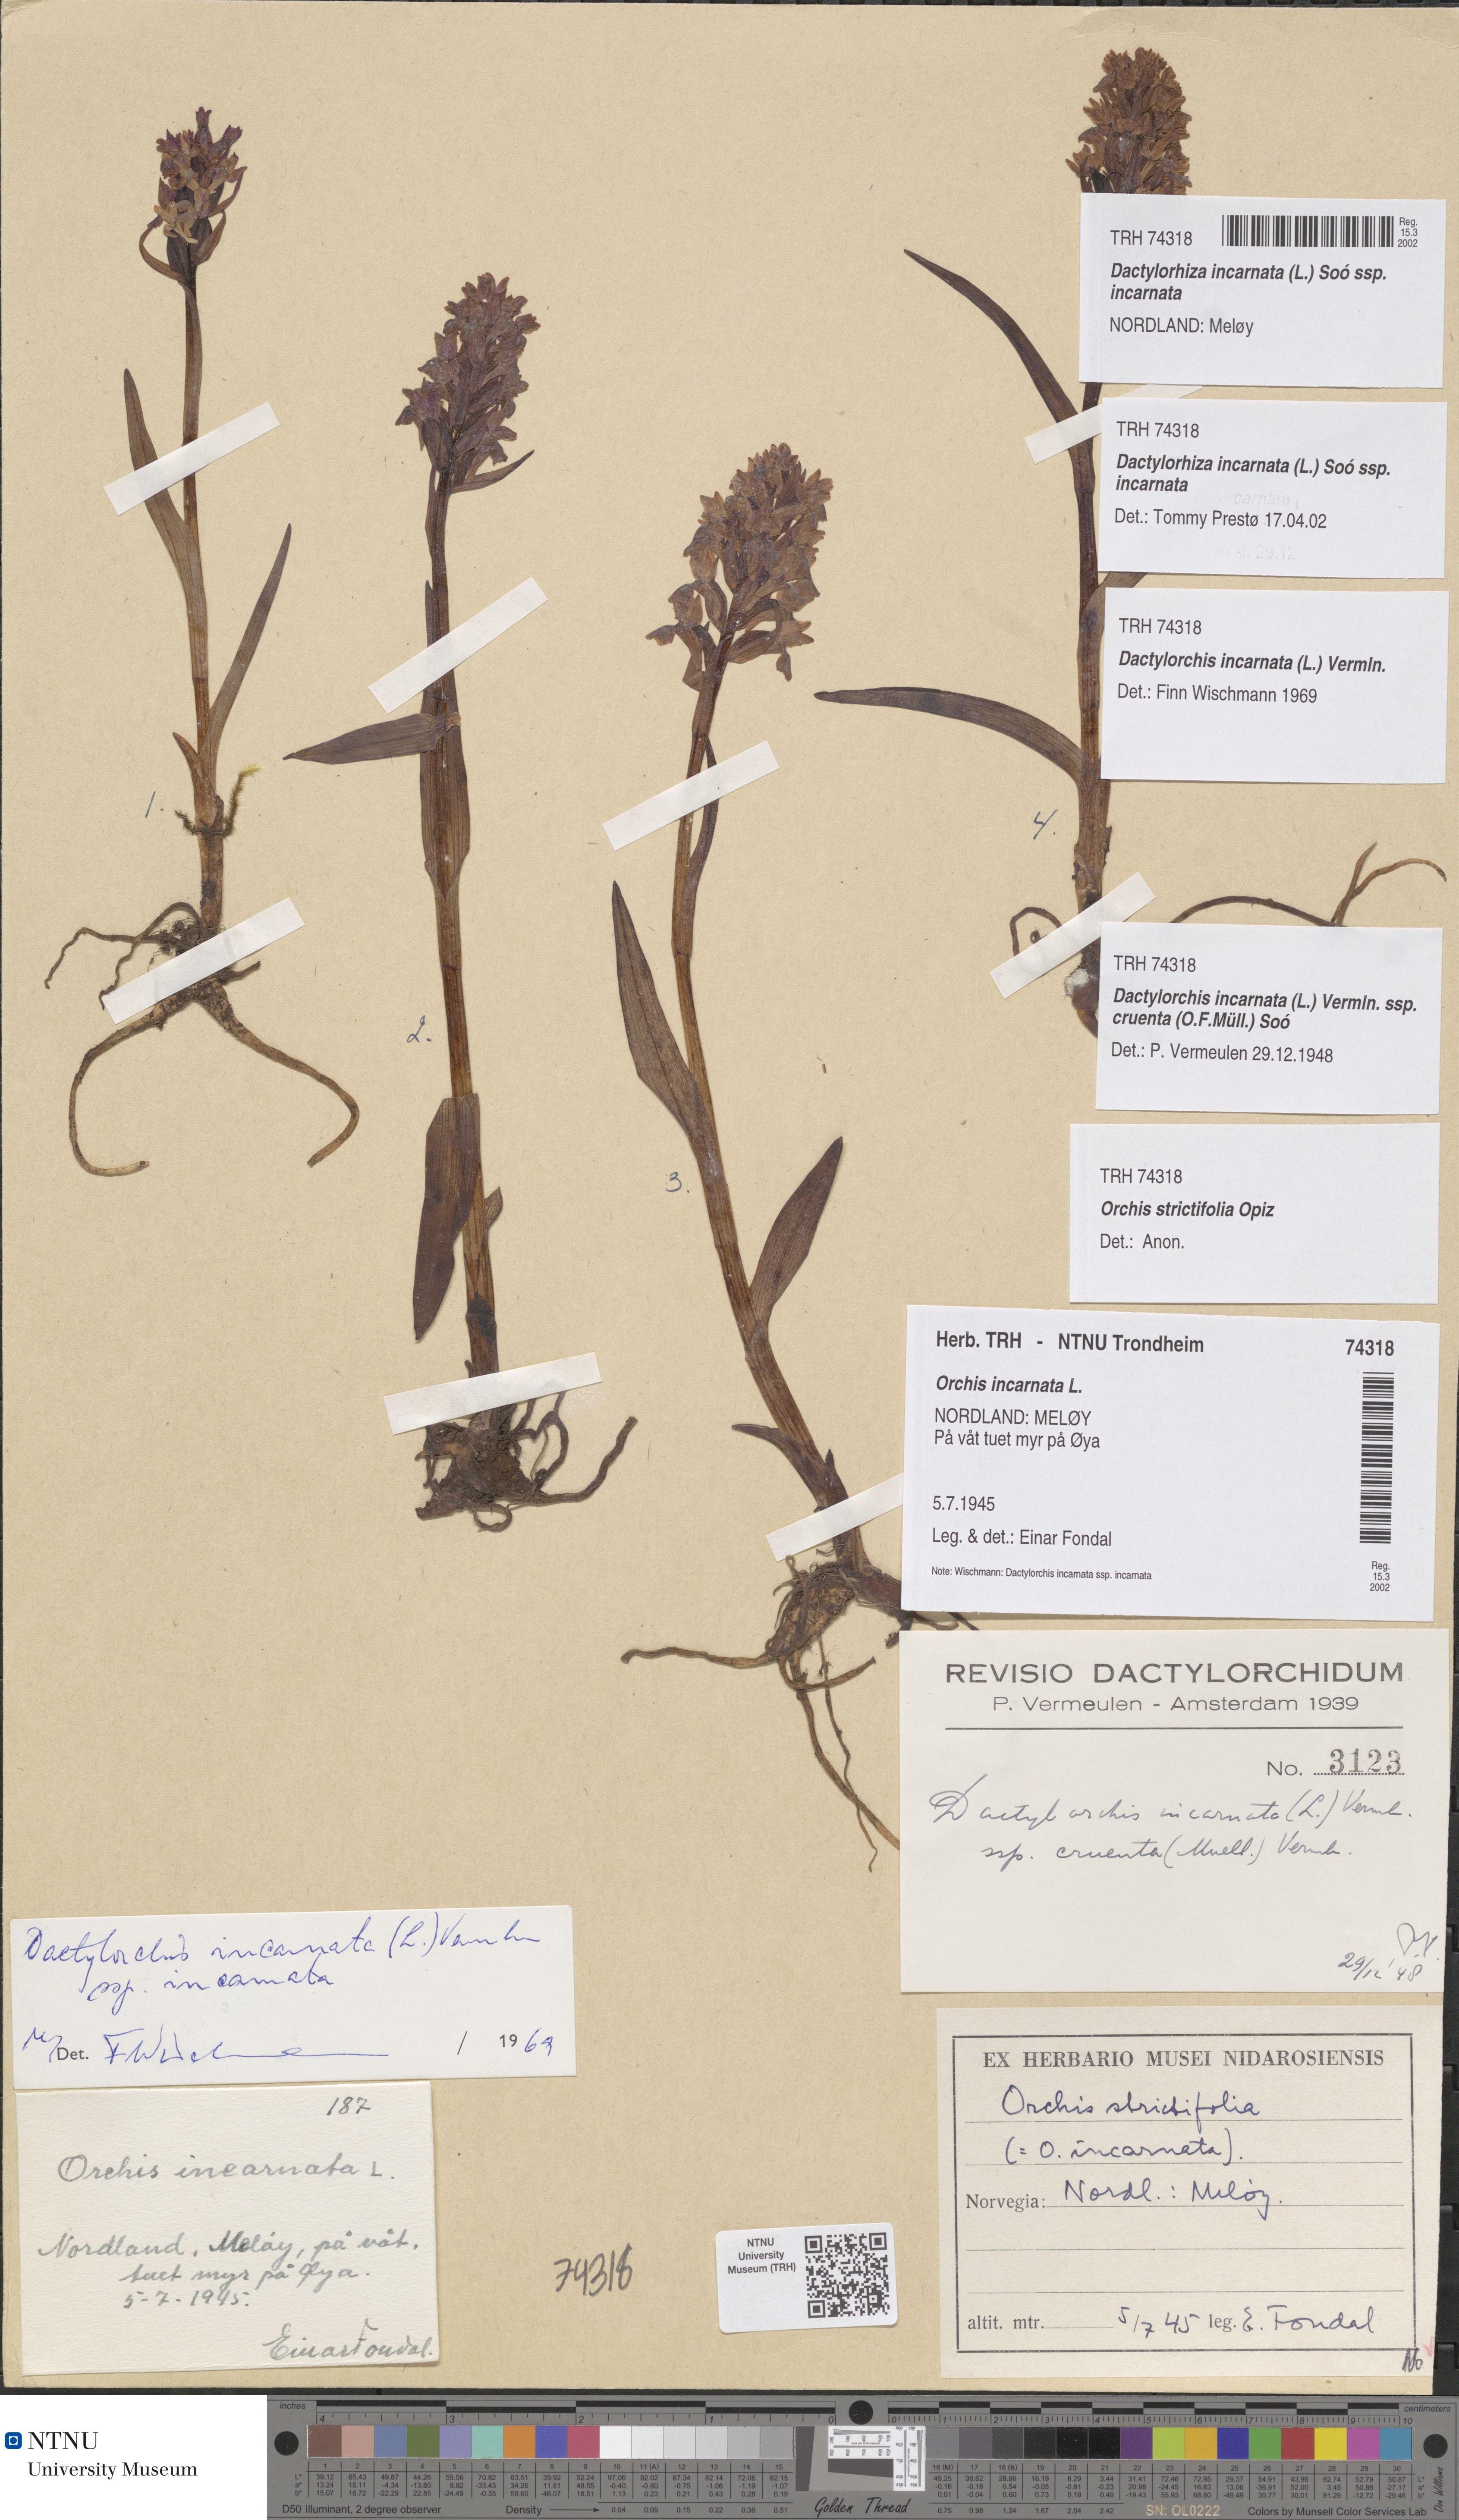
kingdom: Plantae
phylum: Tracheophyta
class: Liliopsida
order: Asparagales
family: Orchidaceae
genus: Dactylorhiza
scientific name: Dactylorhiza incarnata
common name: Early marsh-orchid
